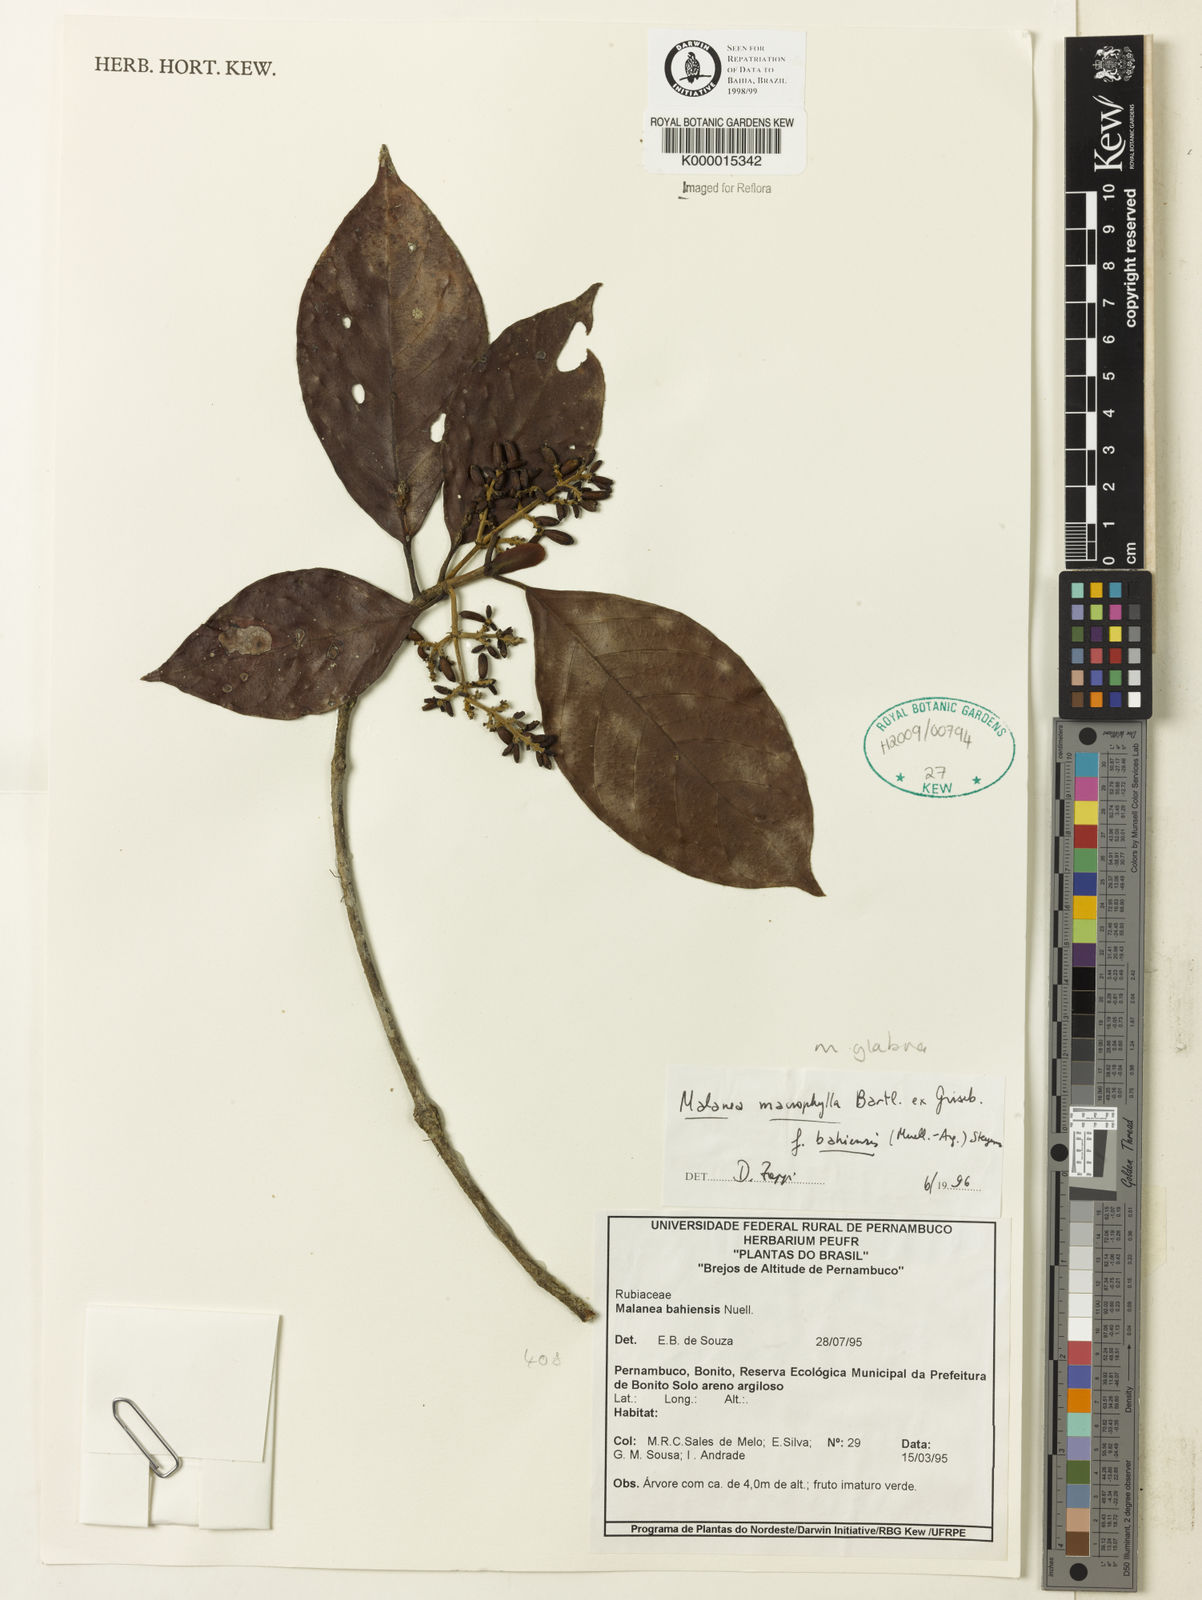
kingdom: Plantae
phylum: Tracheophyta
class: Magnoliopsida
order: Gentianales
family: Rubiaceae
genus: Malanea
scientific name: Malanea glabra
